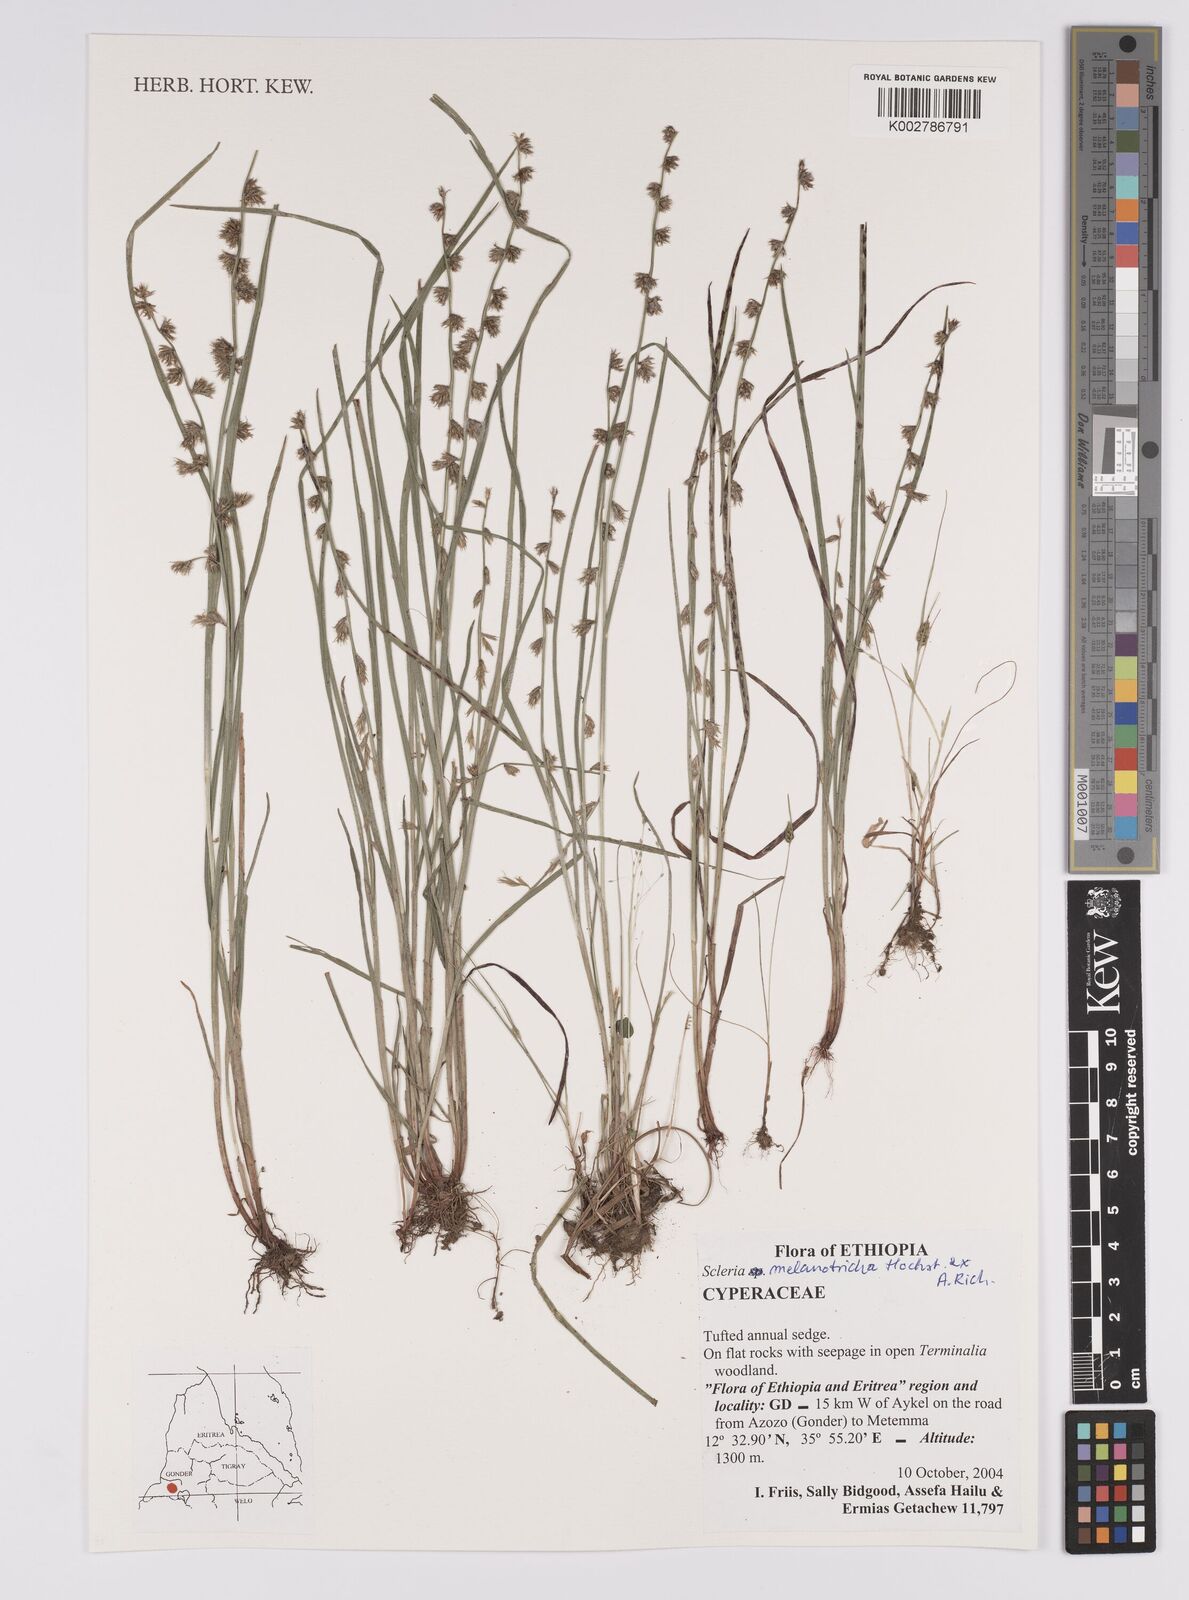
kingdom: Plantae
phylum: Tracheophyta
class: Liliopsida
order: Poales
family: Cyperaceae
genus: Scleria
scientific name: Scleria melanotricha
